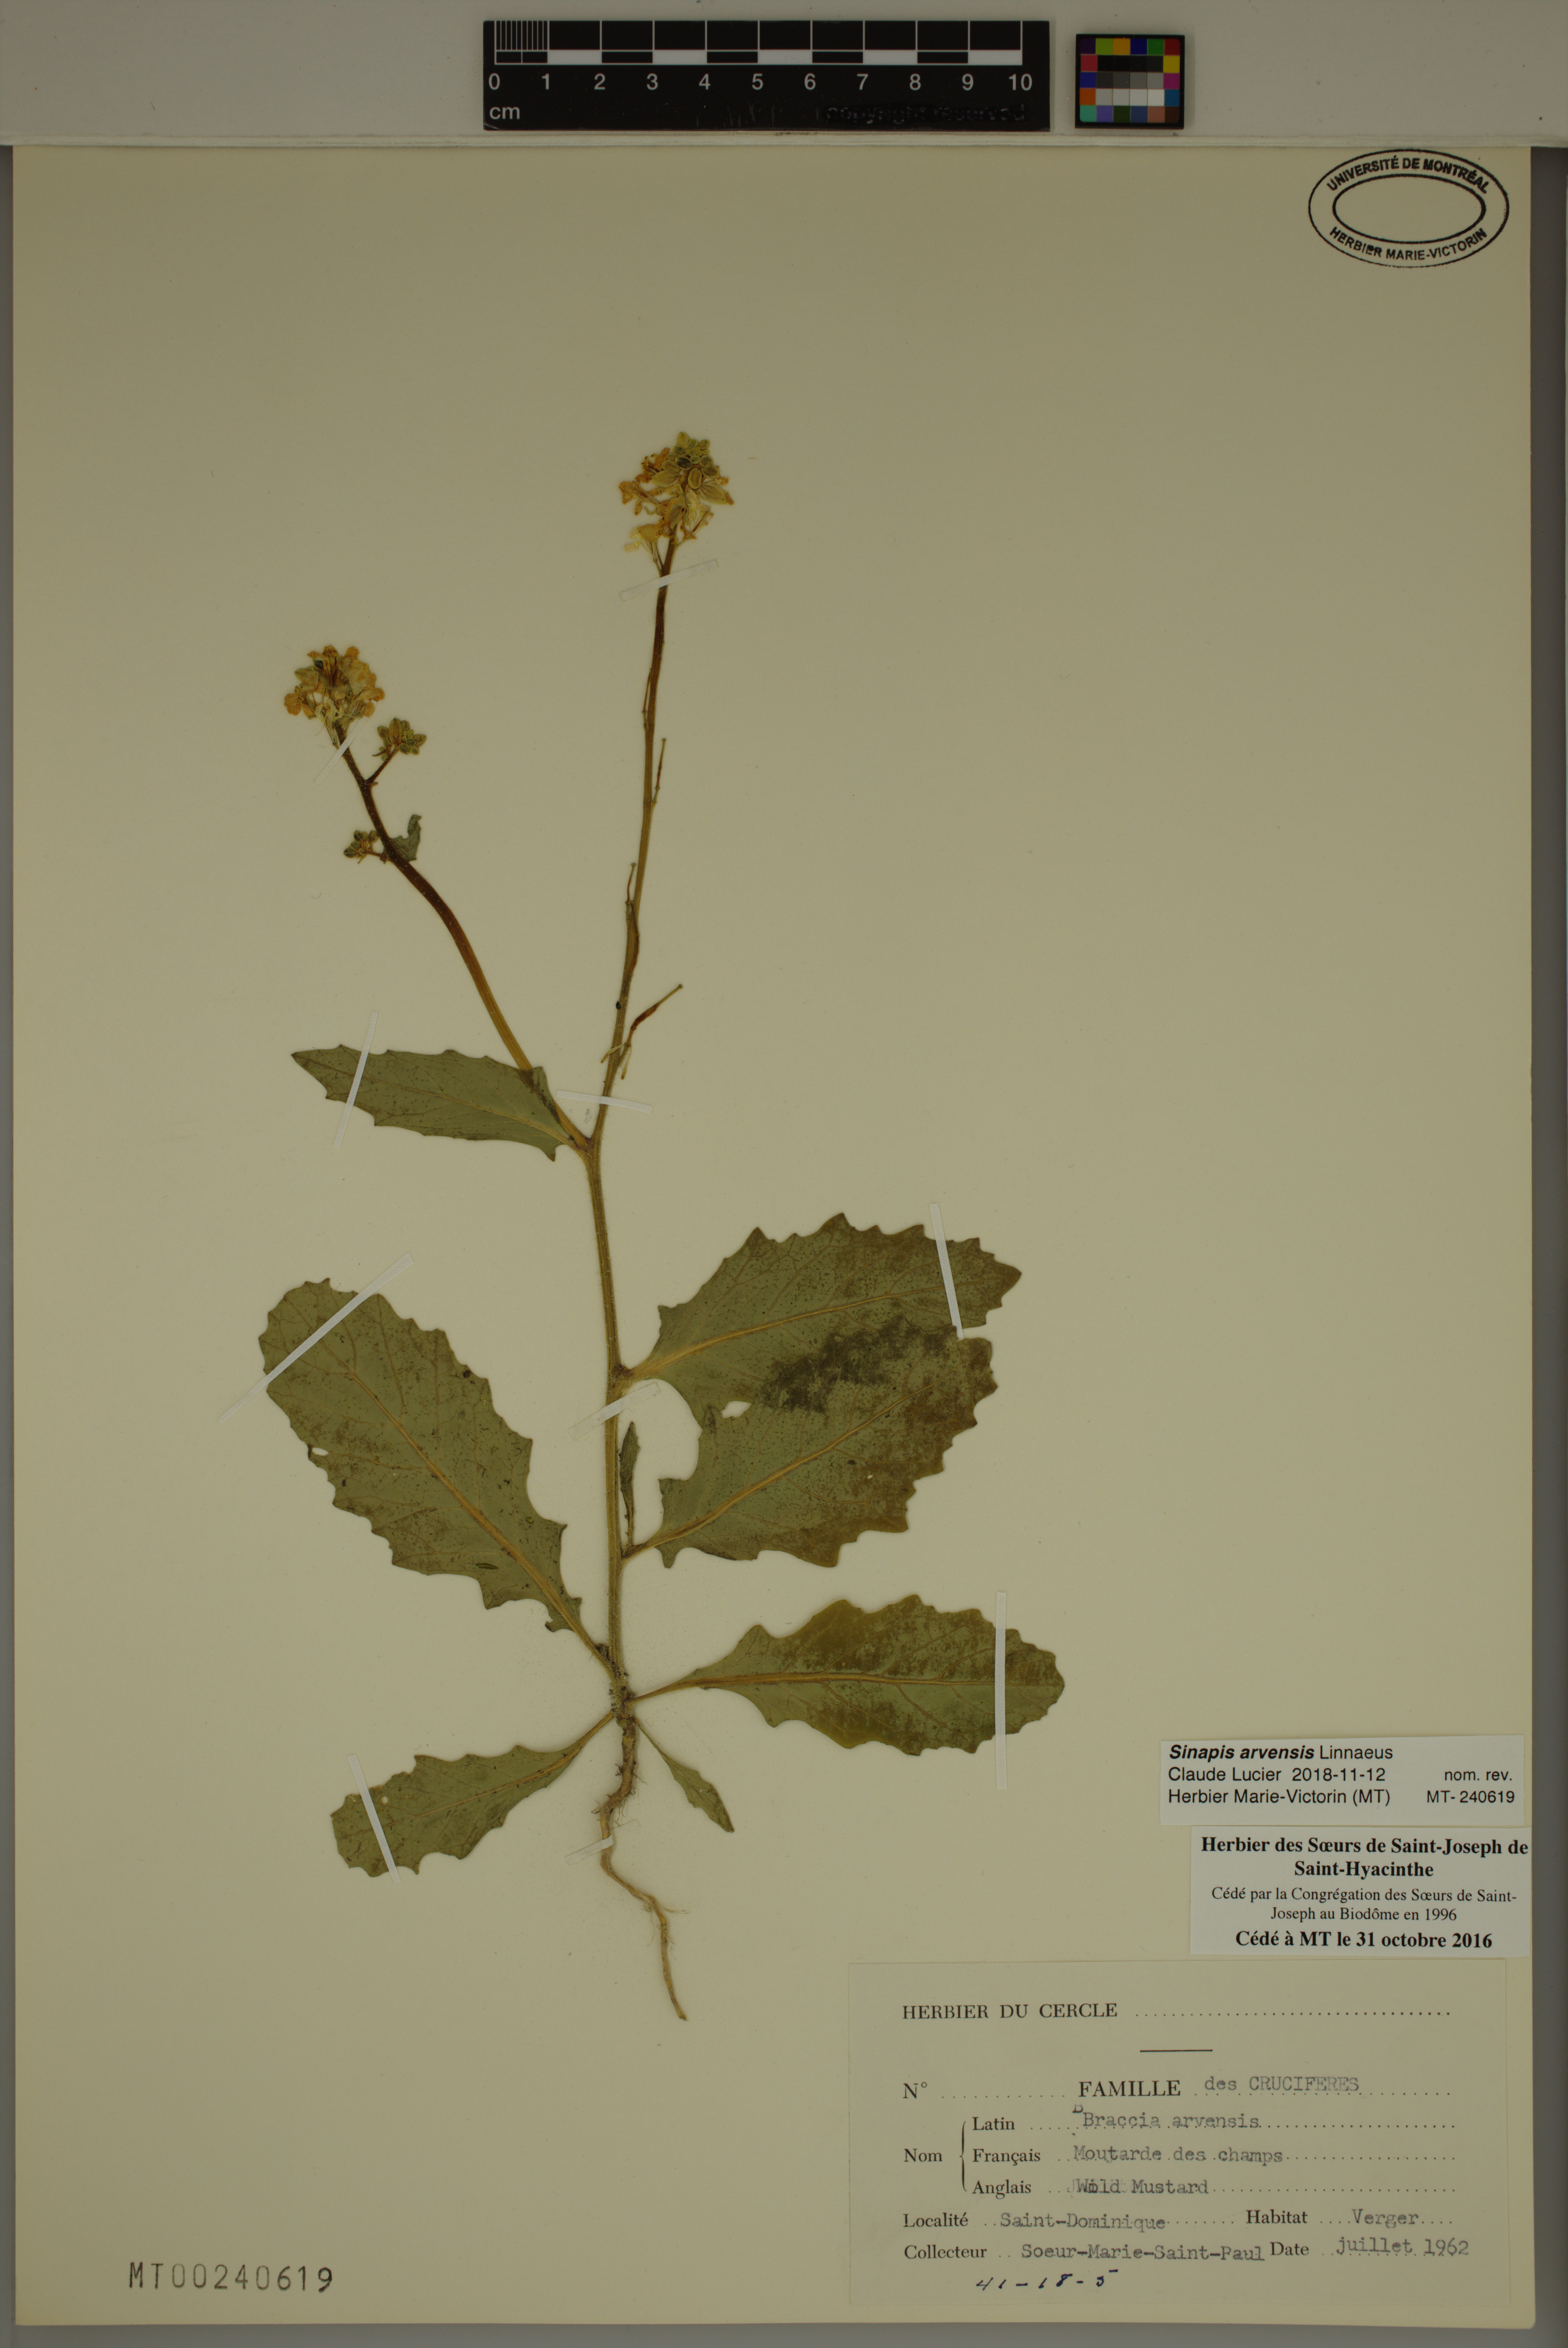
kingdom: Plantae
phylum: Tracheophyta
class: Magnoliopsida
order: Brassicales
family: Brassicaceae
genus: Sinapis
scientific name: Sinapis arvensis
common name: Charlock
